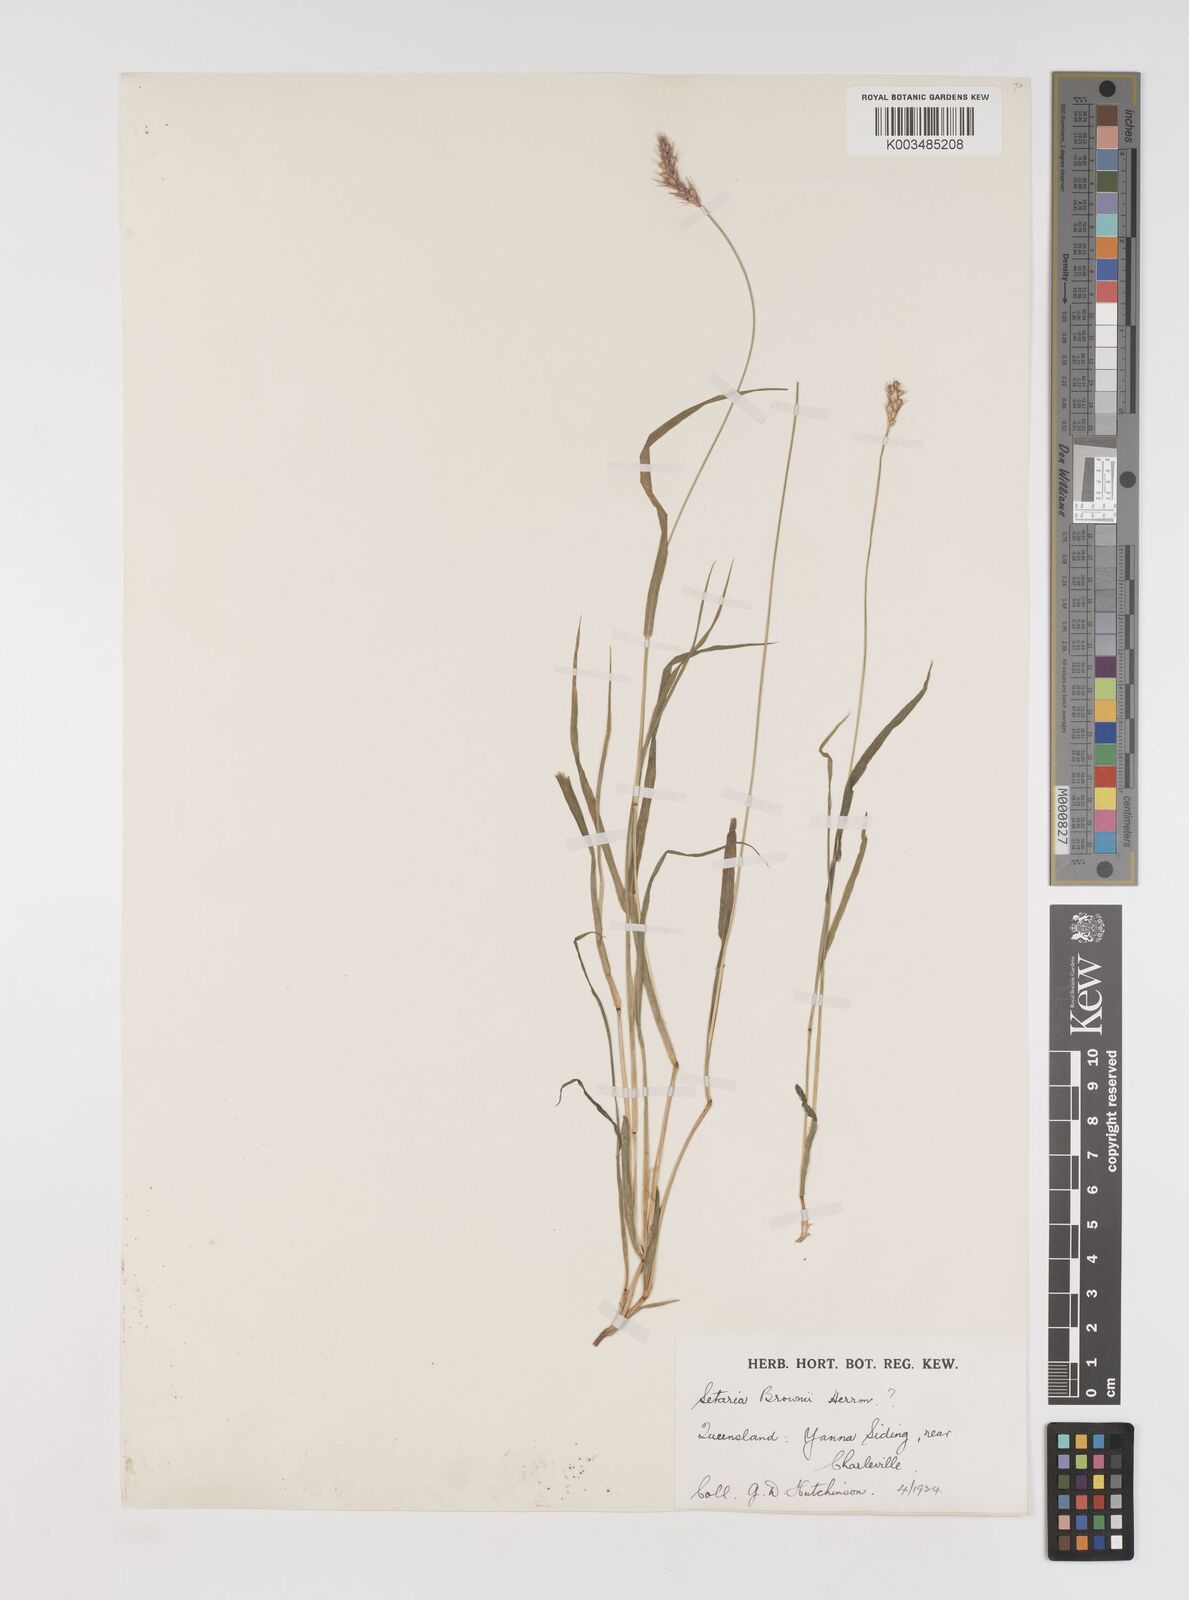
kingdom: Plantae
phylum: Tracheophyta
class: Liliopsida
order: Poales
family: Poaceae
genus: Setaria
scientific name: Setaria surgens
